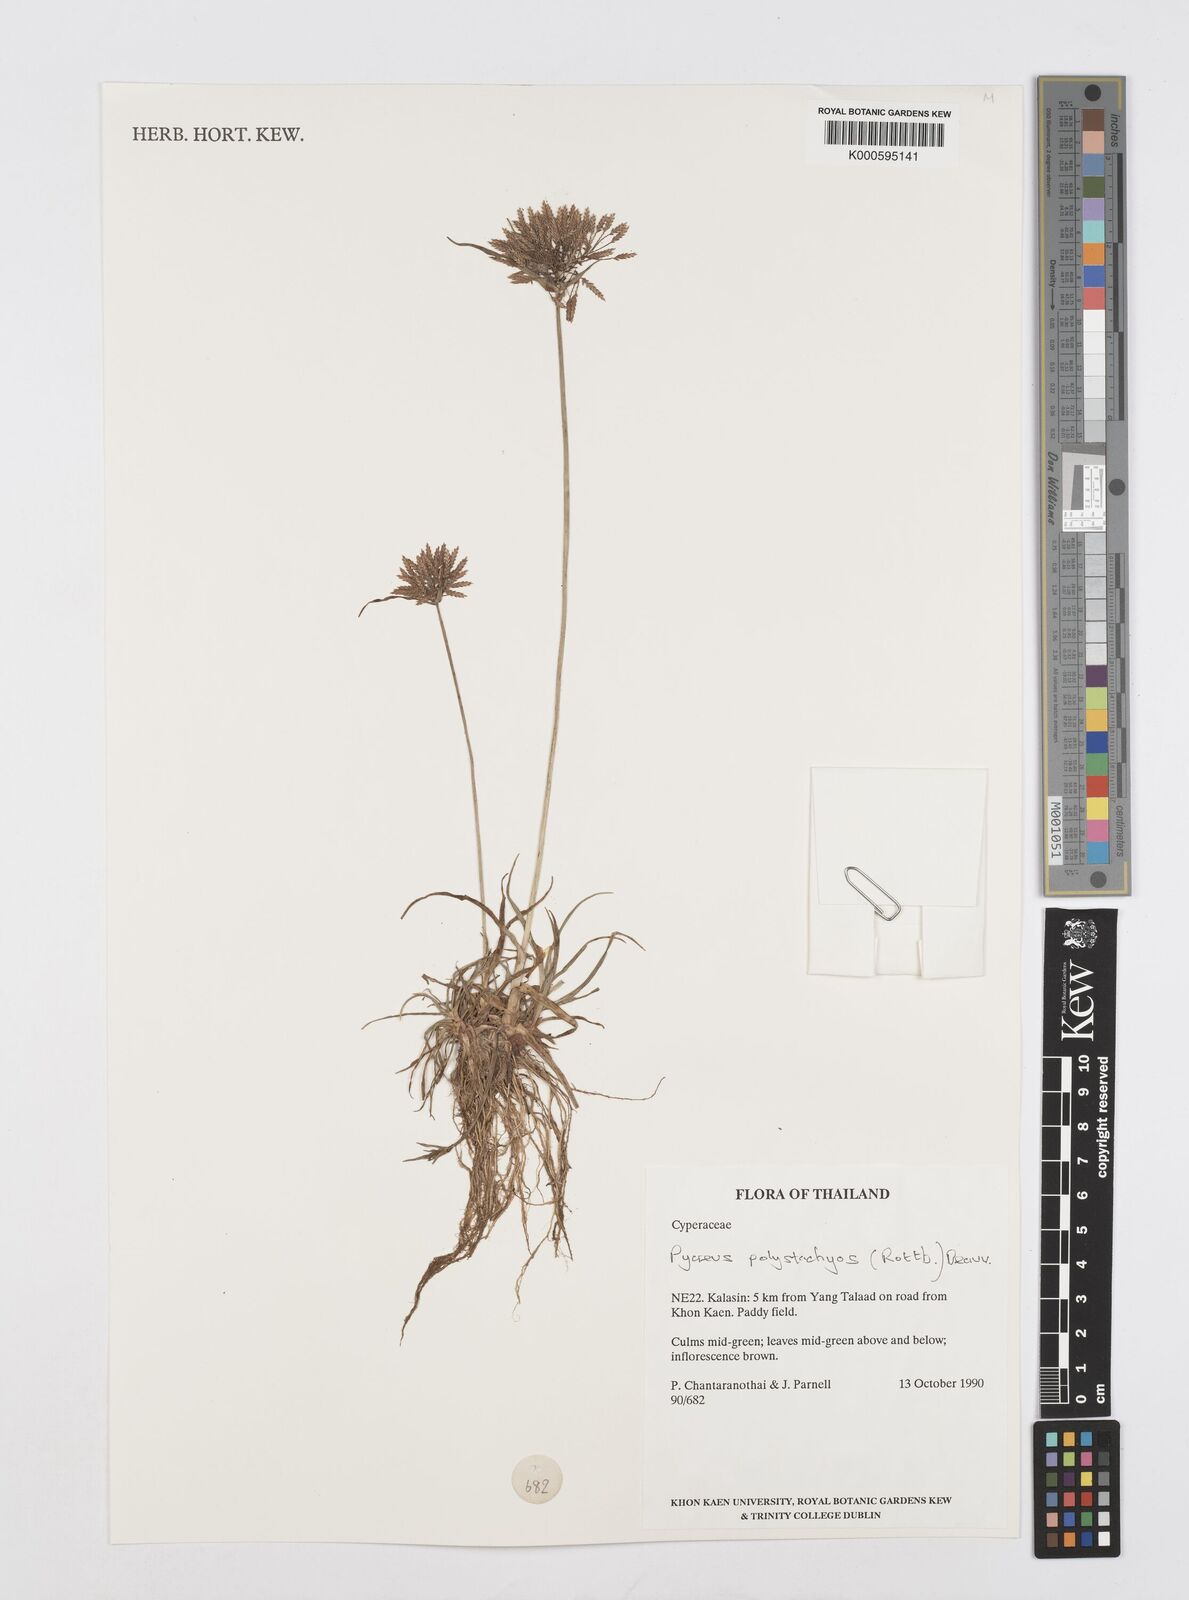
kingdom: Plantae
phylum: Tracheophyta
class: Liliopsida
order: Poales
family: Cyperaceae
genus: Cyperus
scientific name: Cyperus polystachyos
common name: Bunchy flat sedge
